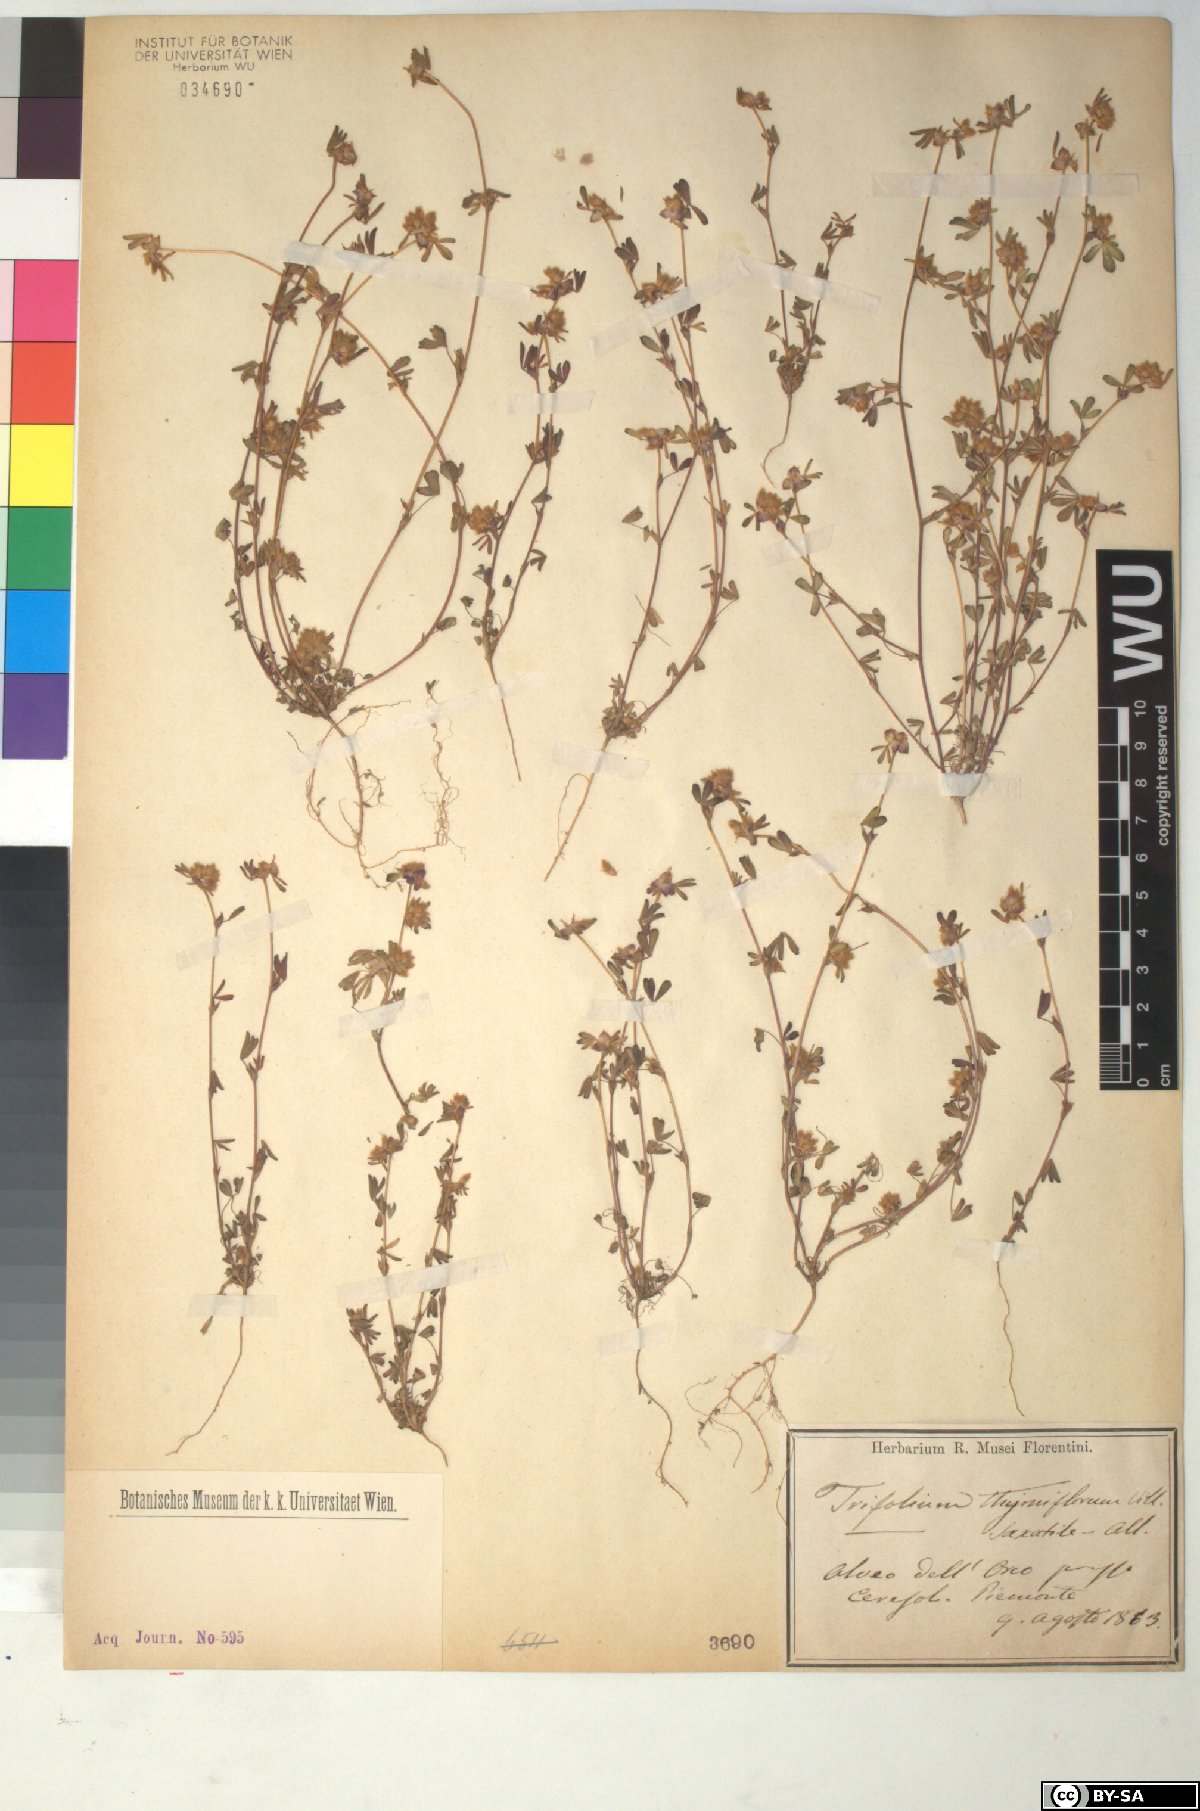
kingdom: Plantae
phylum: Tracheophyta
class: Magnoliopsida
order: Fabales
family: Fabaceae
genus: Trifolium
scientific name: Trifolium saxatile
